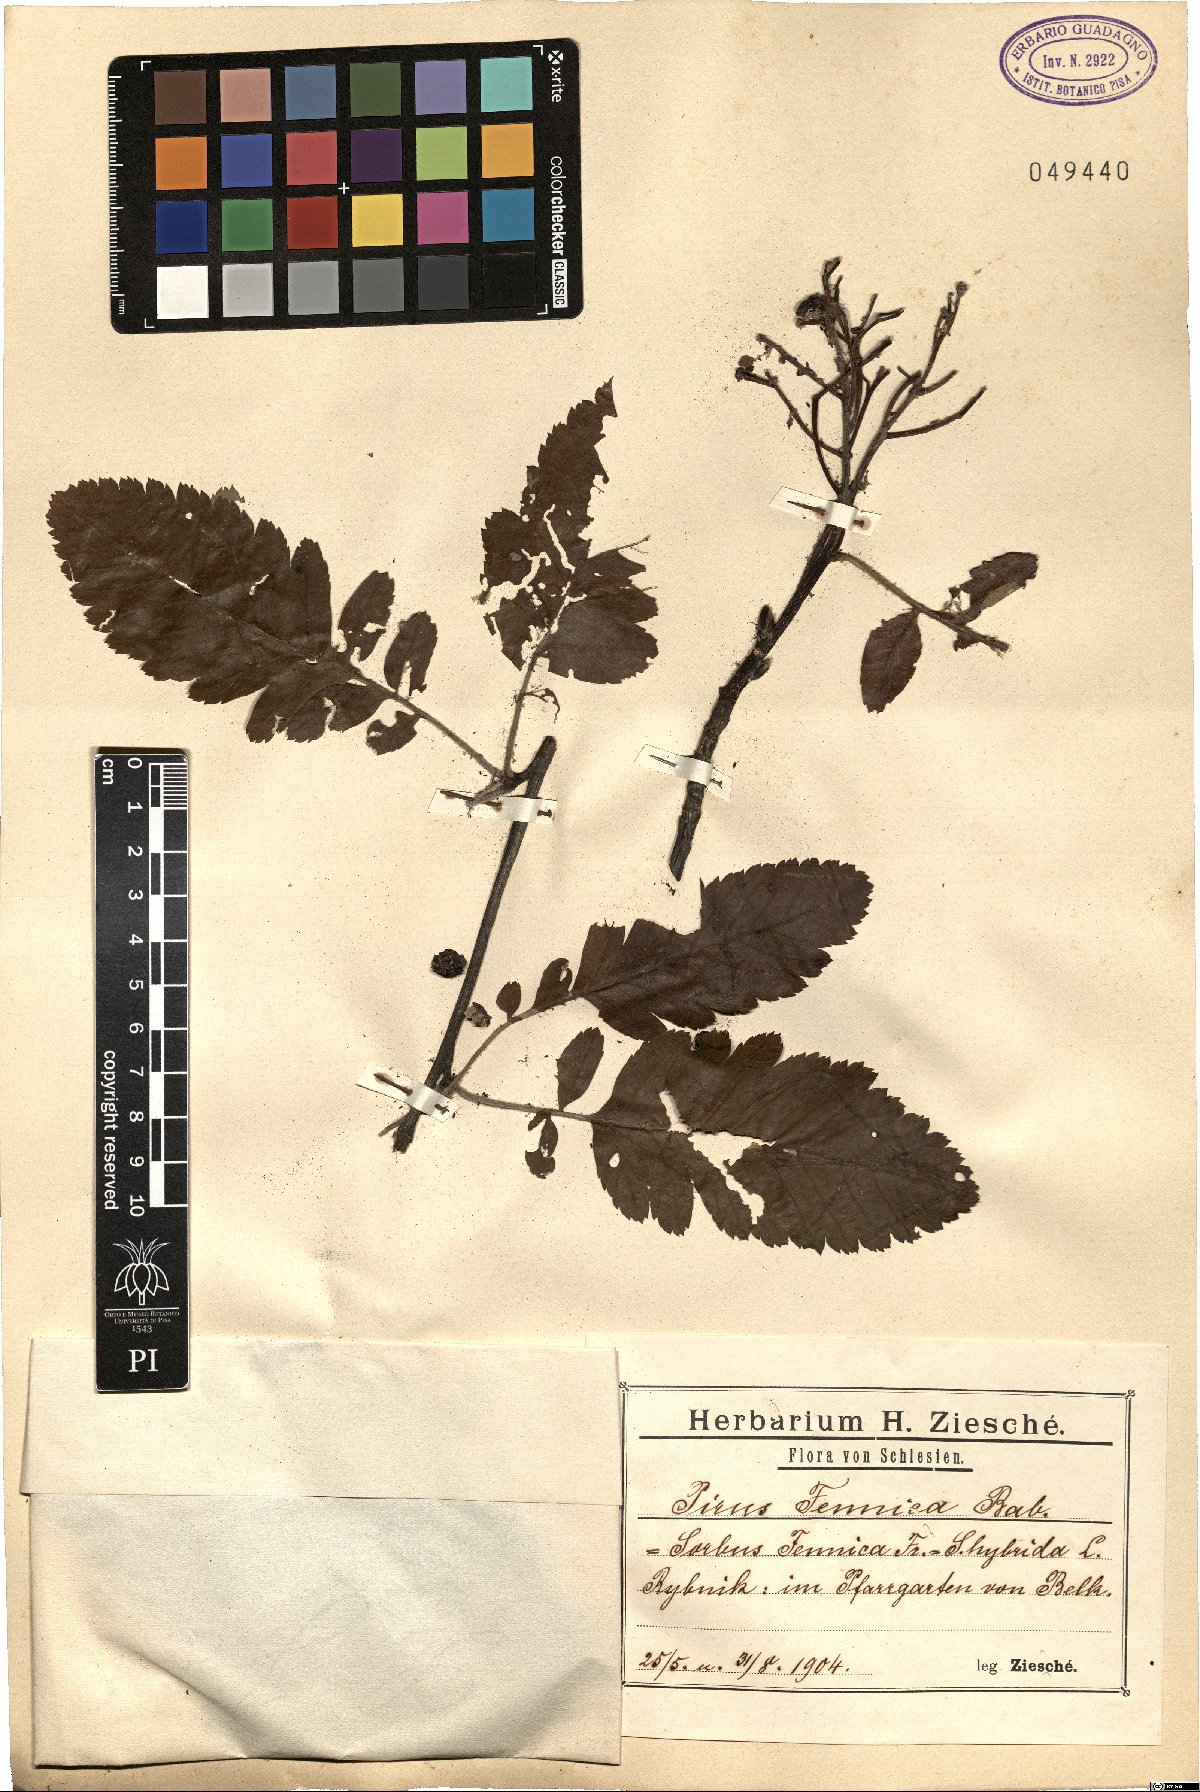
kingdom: Plantae
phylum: Tracheophyta
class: Magnoliopsida
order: Rosales
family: Rosaceae
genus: Hedlundia
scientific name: Hedlundia hybrida
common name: Swedish service-tree
